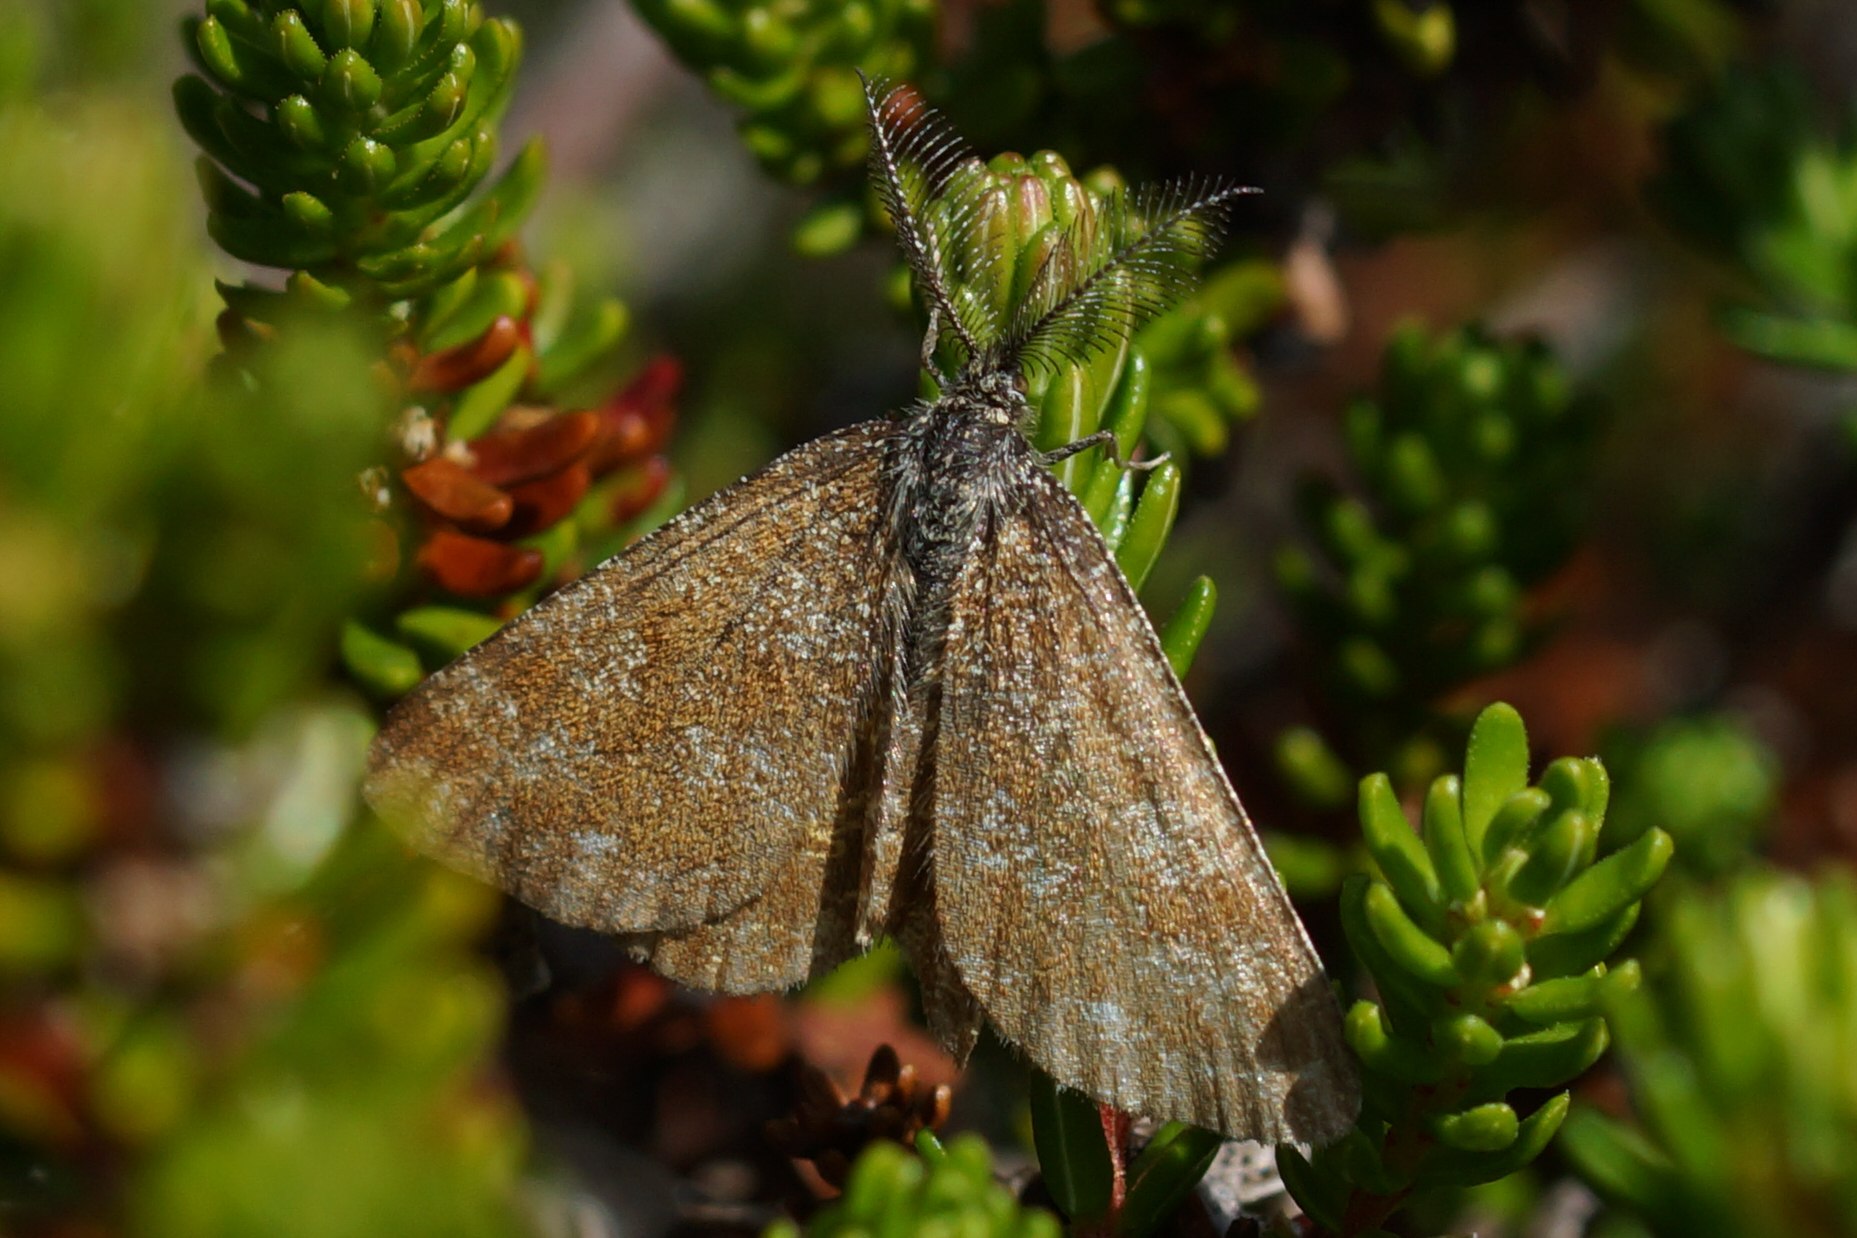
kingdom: Animalia
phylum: Arthropoda
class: Insecta
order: Lepidoptera
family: Geometridae
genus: Ematurga
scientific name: Ematurga atomaria
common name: Lyngmåler
